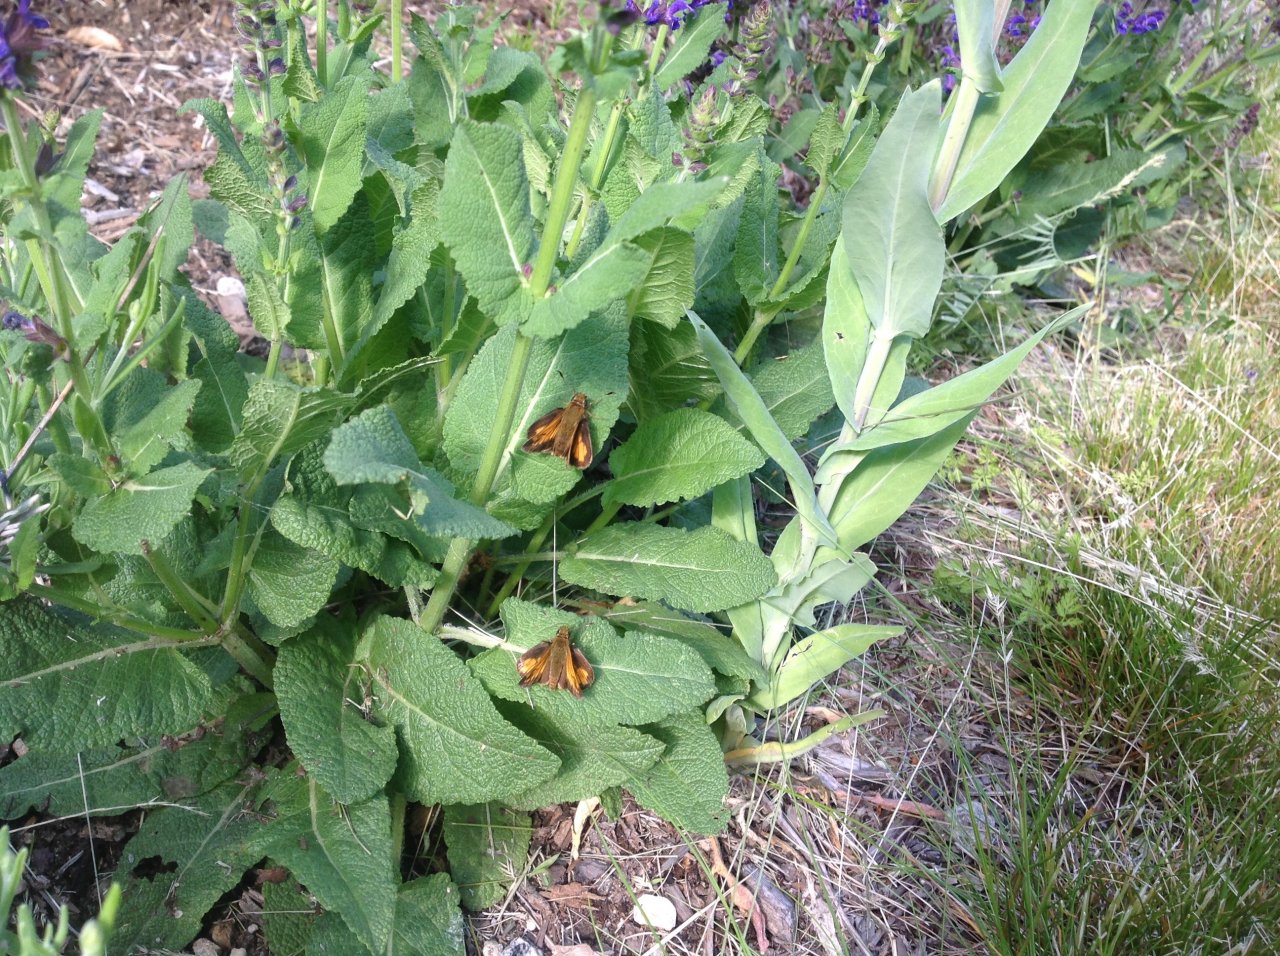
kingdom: Animalia
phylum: Arthropoda
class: Insecta
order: Lepidoptera
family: Hesperiidae
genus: Lon
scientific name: Lon hobomok
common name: Hobomok Skipper
